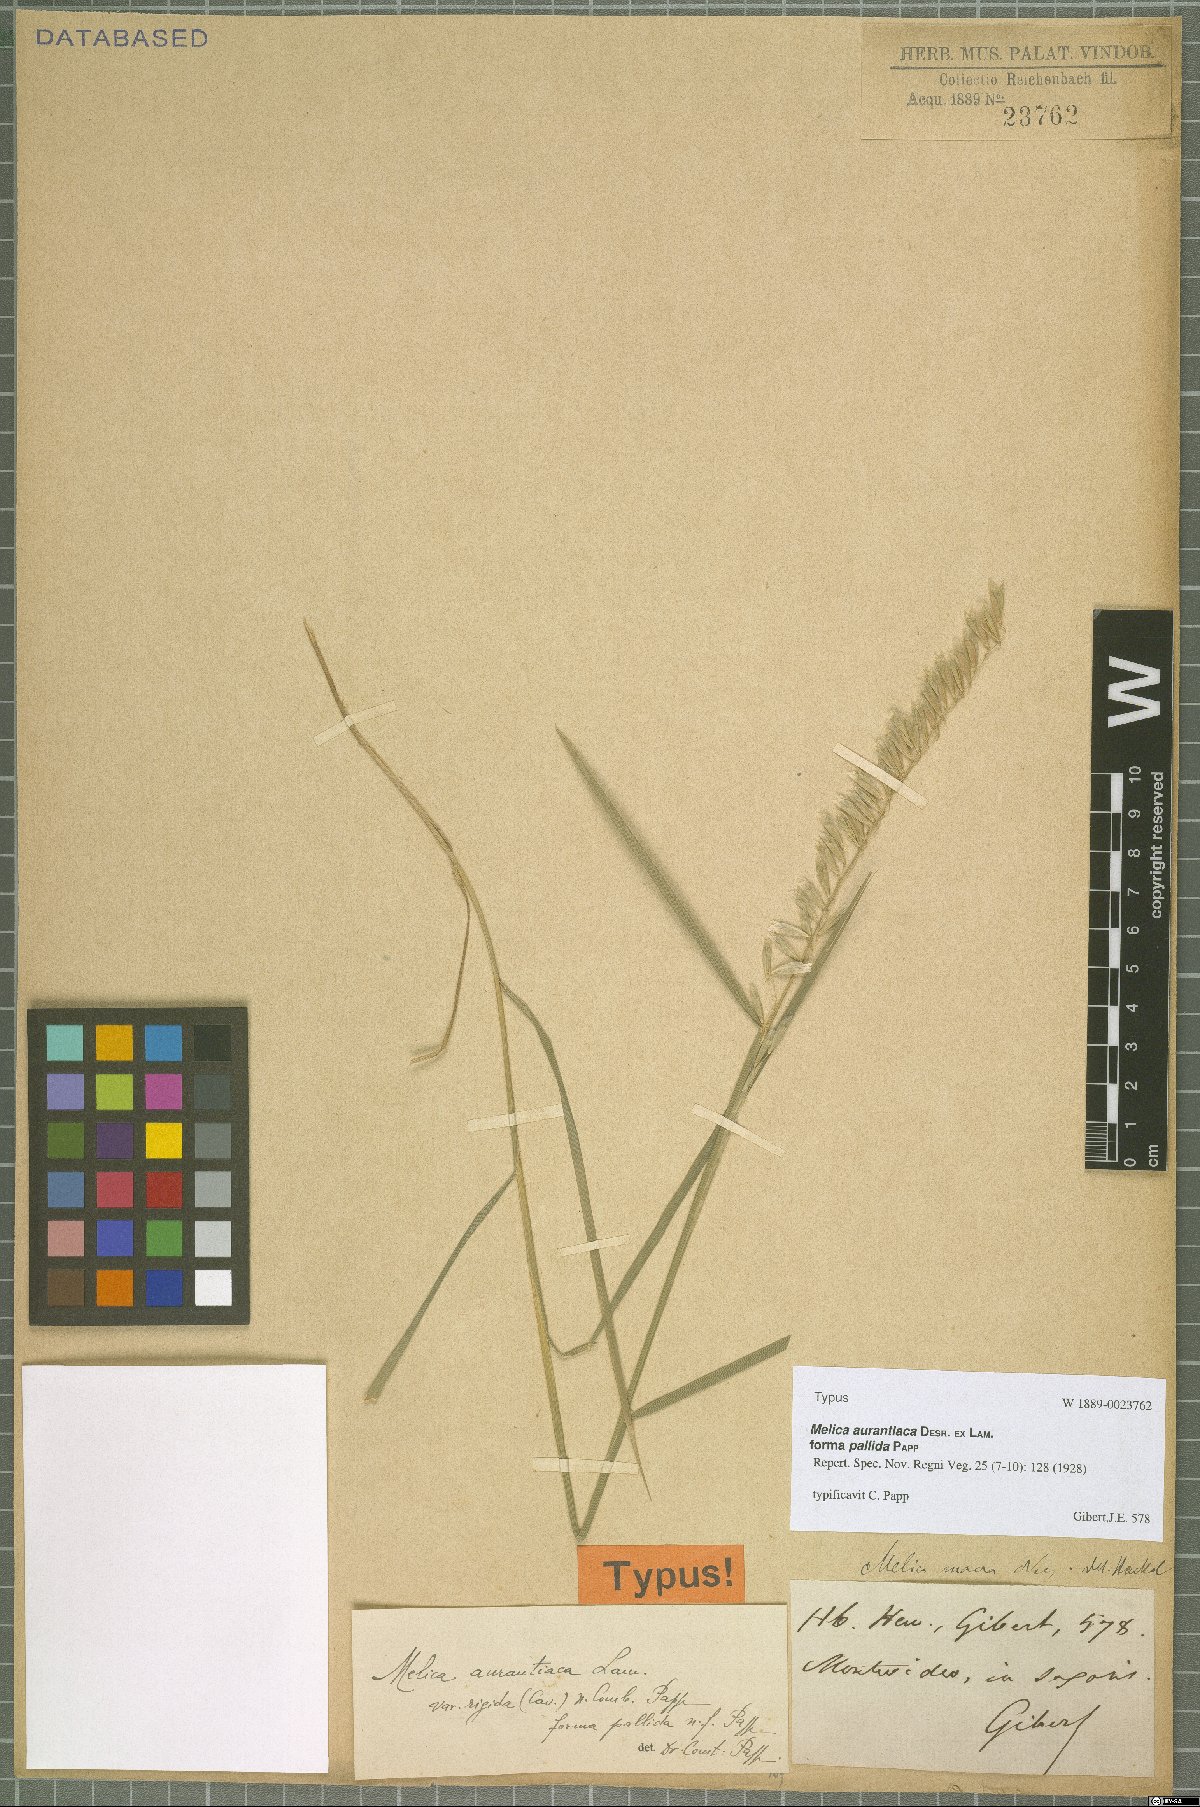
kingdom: Plantae
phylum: Tracheophyta
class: Liliopsida
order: Poales
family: Poaceae
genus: Melica
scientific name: Melica rigida
